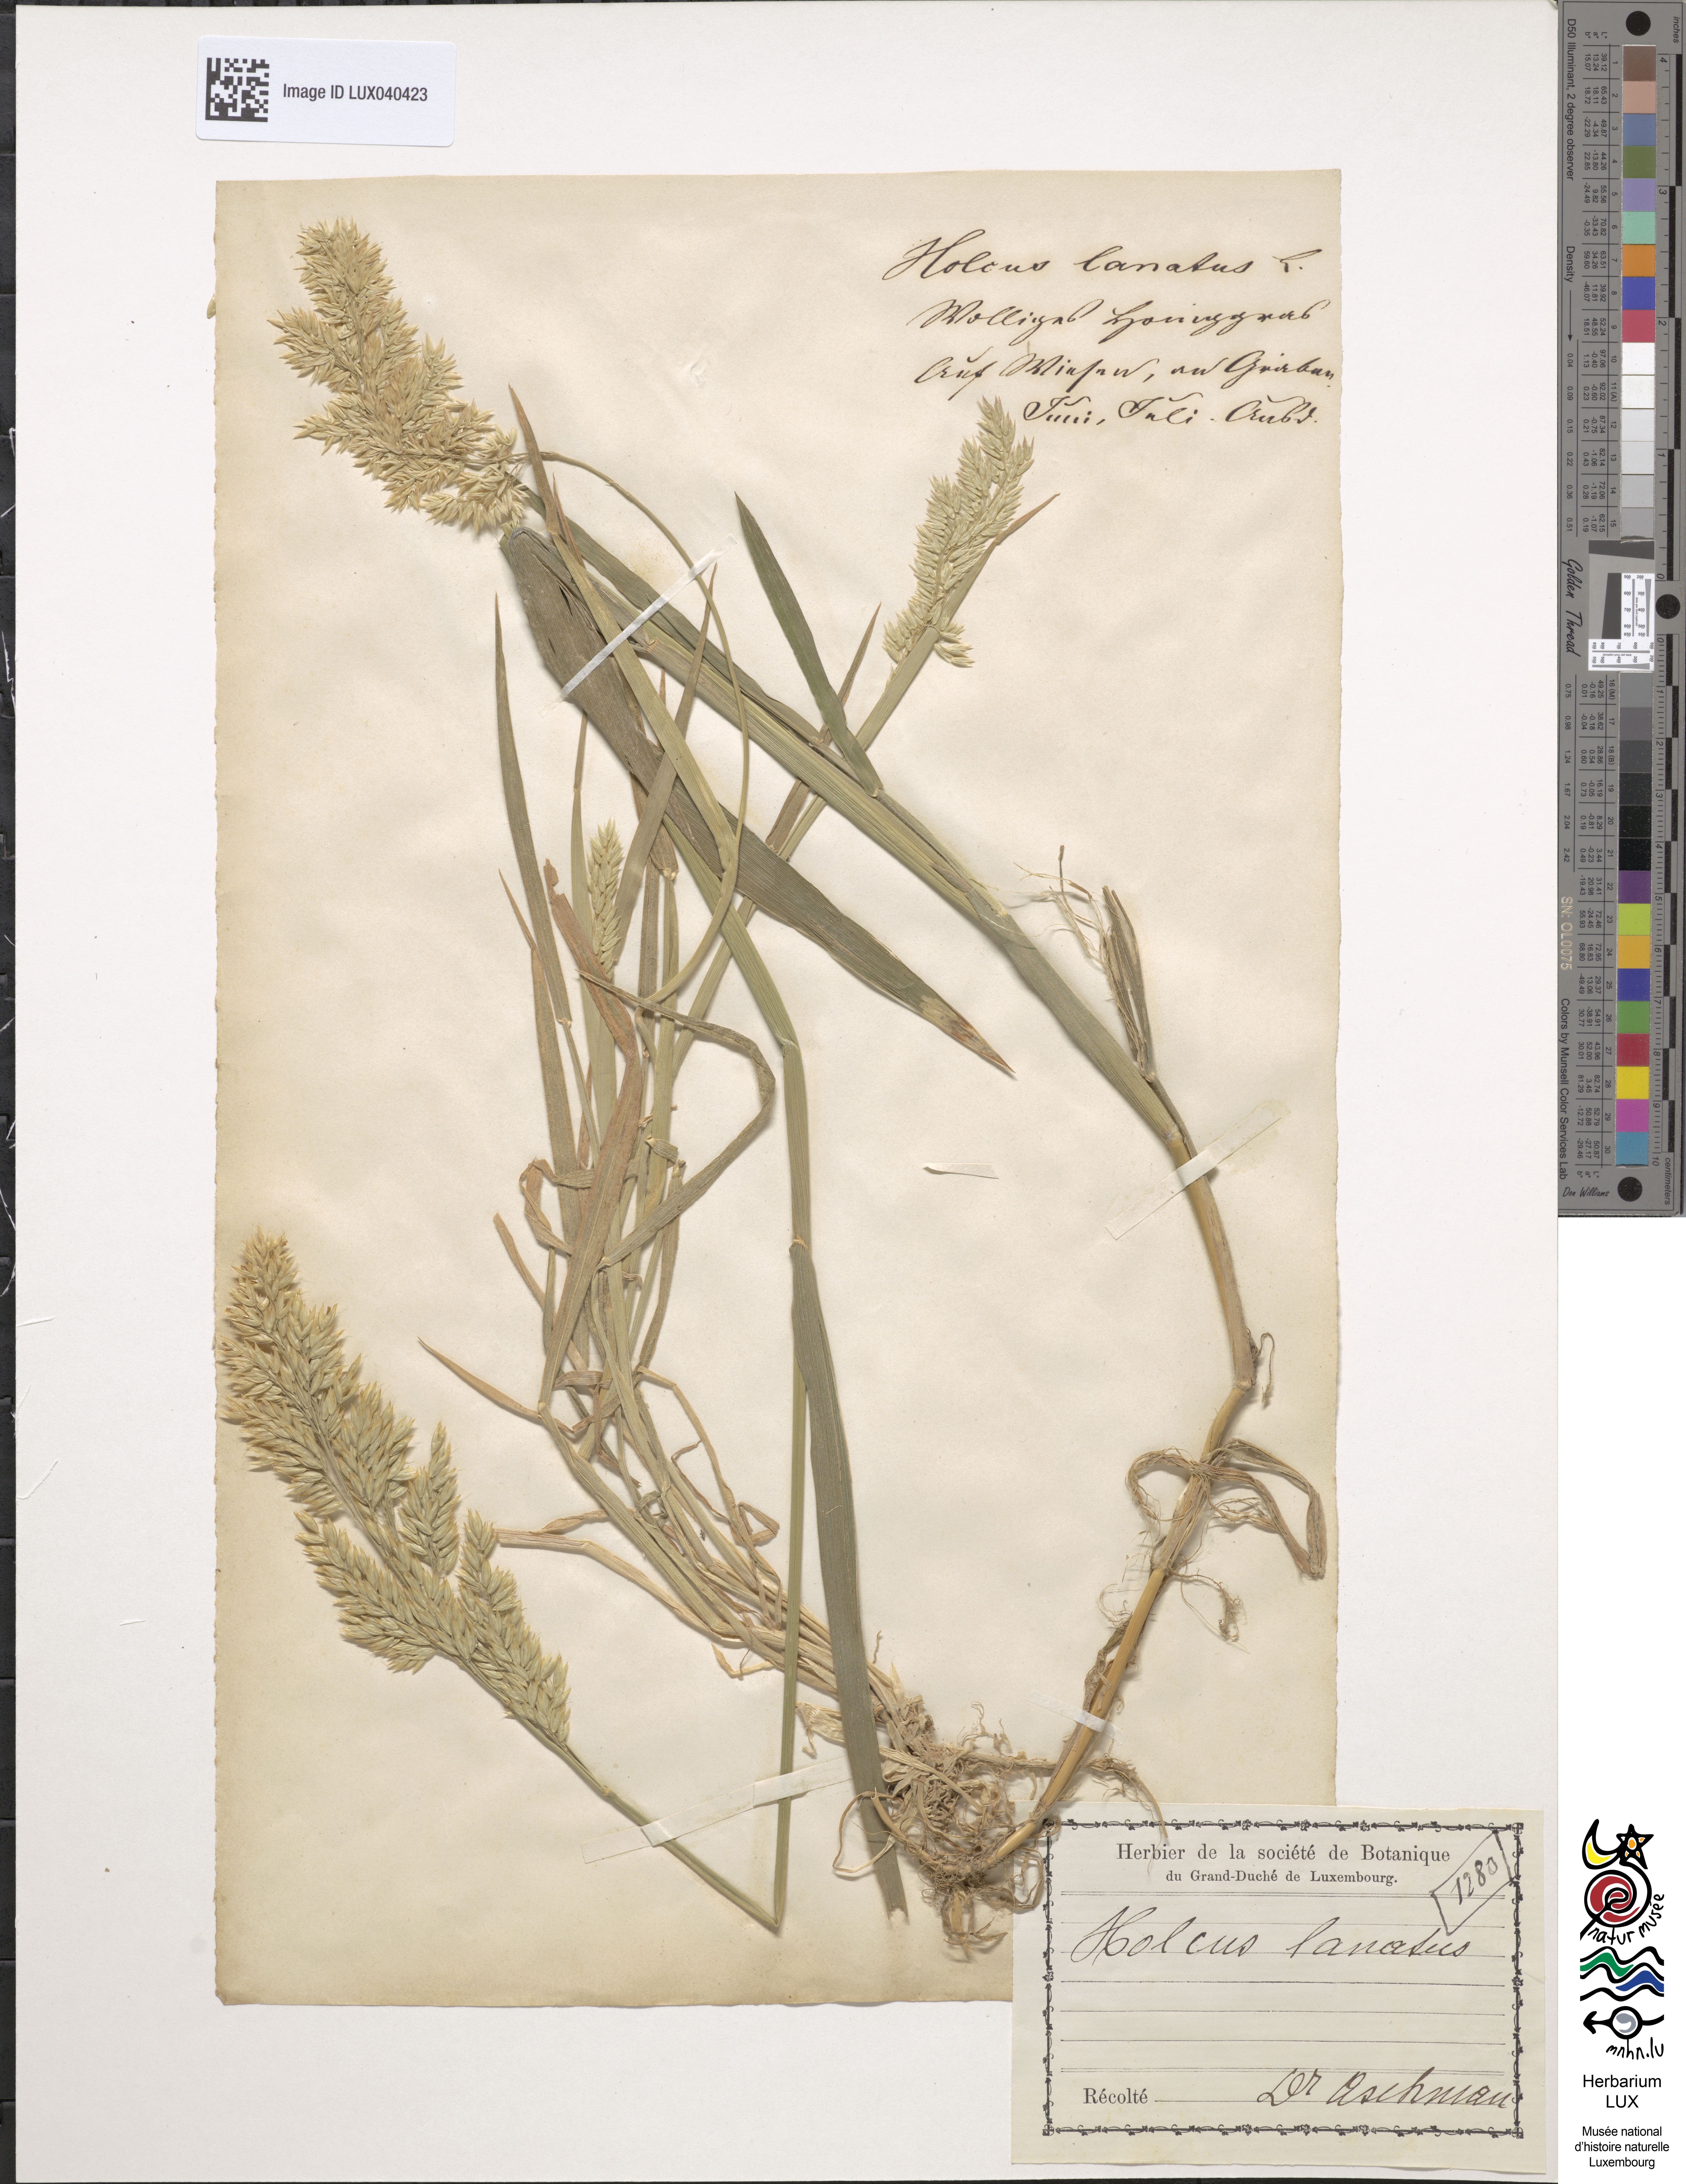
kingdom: Plantae
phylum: Tracheophyta
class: Liliopsida
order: Poales
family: Poaceae
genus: Holcus
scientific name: Holcus lanatus
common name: Yorkshire-fog
